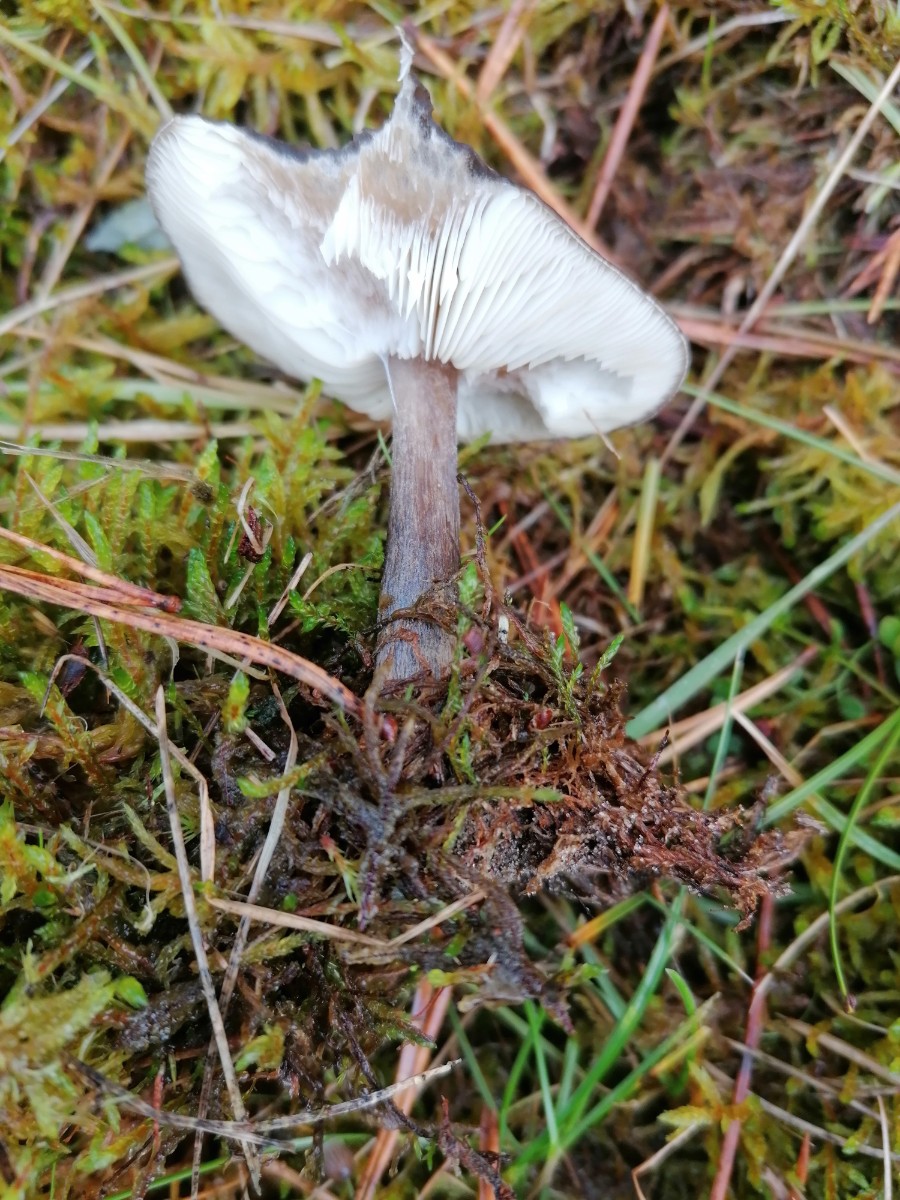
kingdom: Fungi
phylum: Basidiomycota
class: Agaricomycetes
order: Agaricales
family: Tricholomataceae
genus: Melanoleuca
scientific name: Melanoleuca
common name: munkehat
